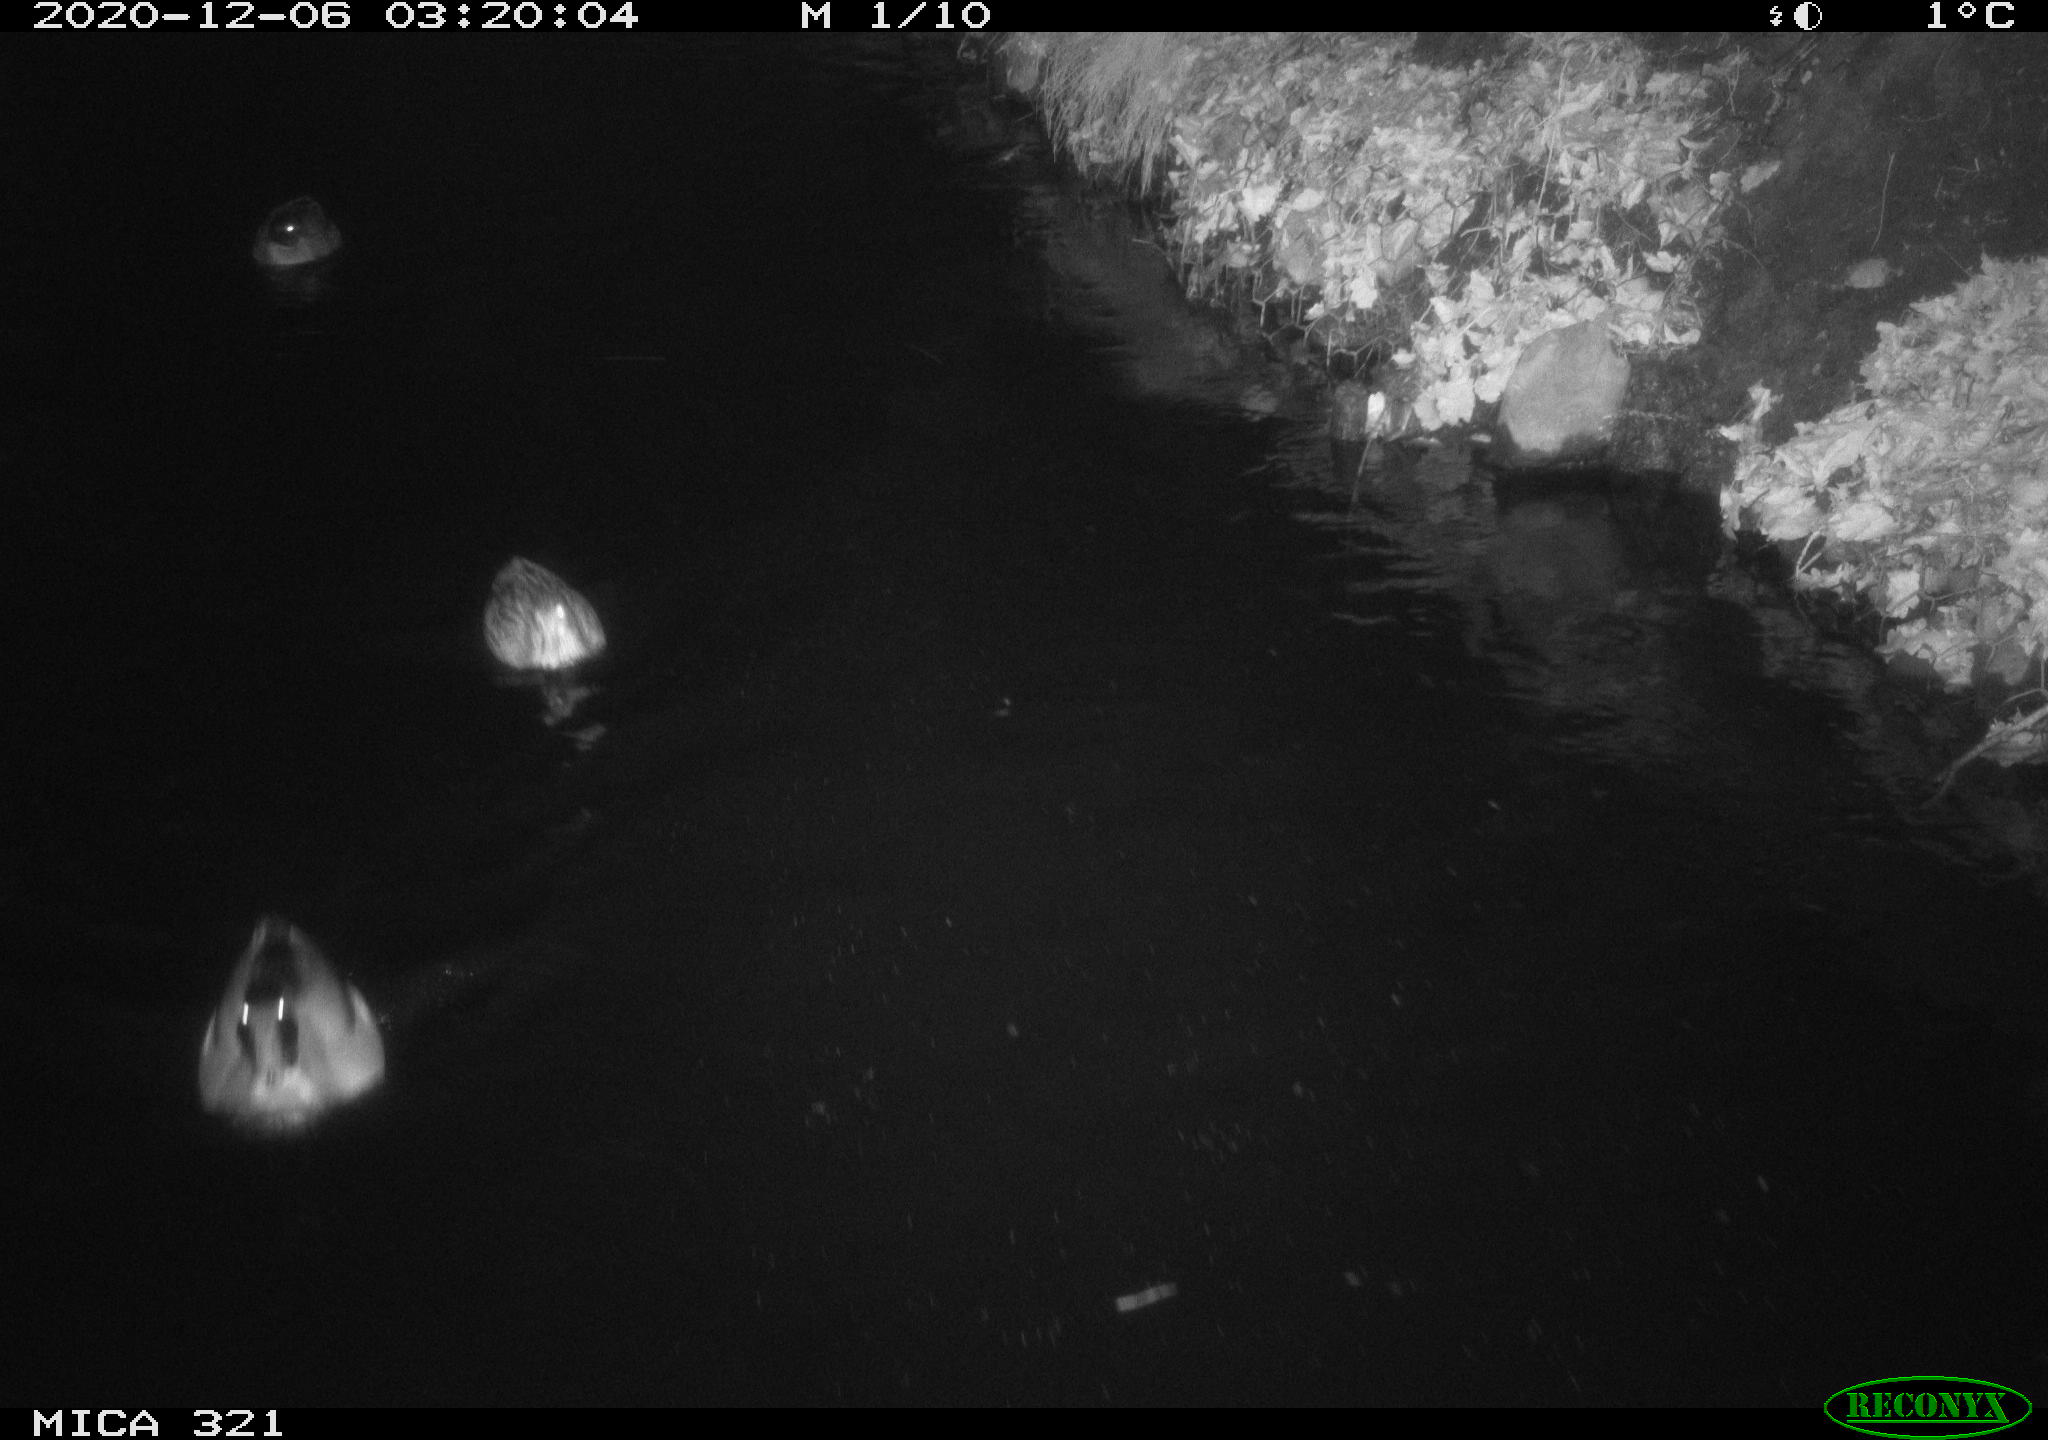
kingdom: Animalia
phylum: Chordata
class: Aves
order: Anseriformes
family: Anatidae
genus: Anas
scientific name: Anas platyrhynchos
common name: Mallard
